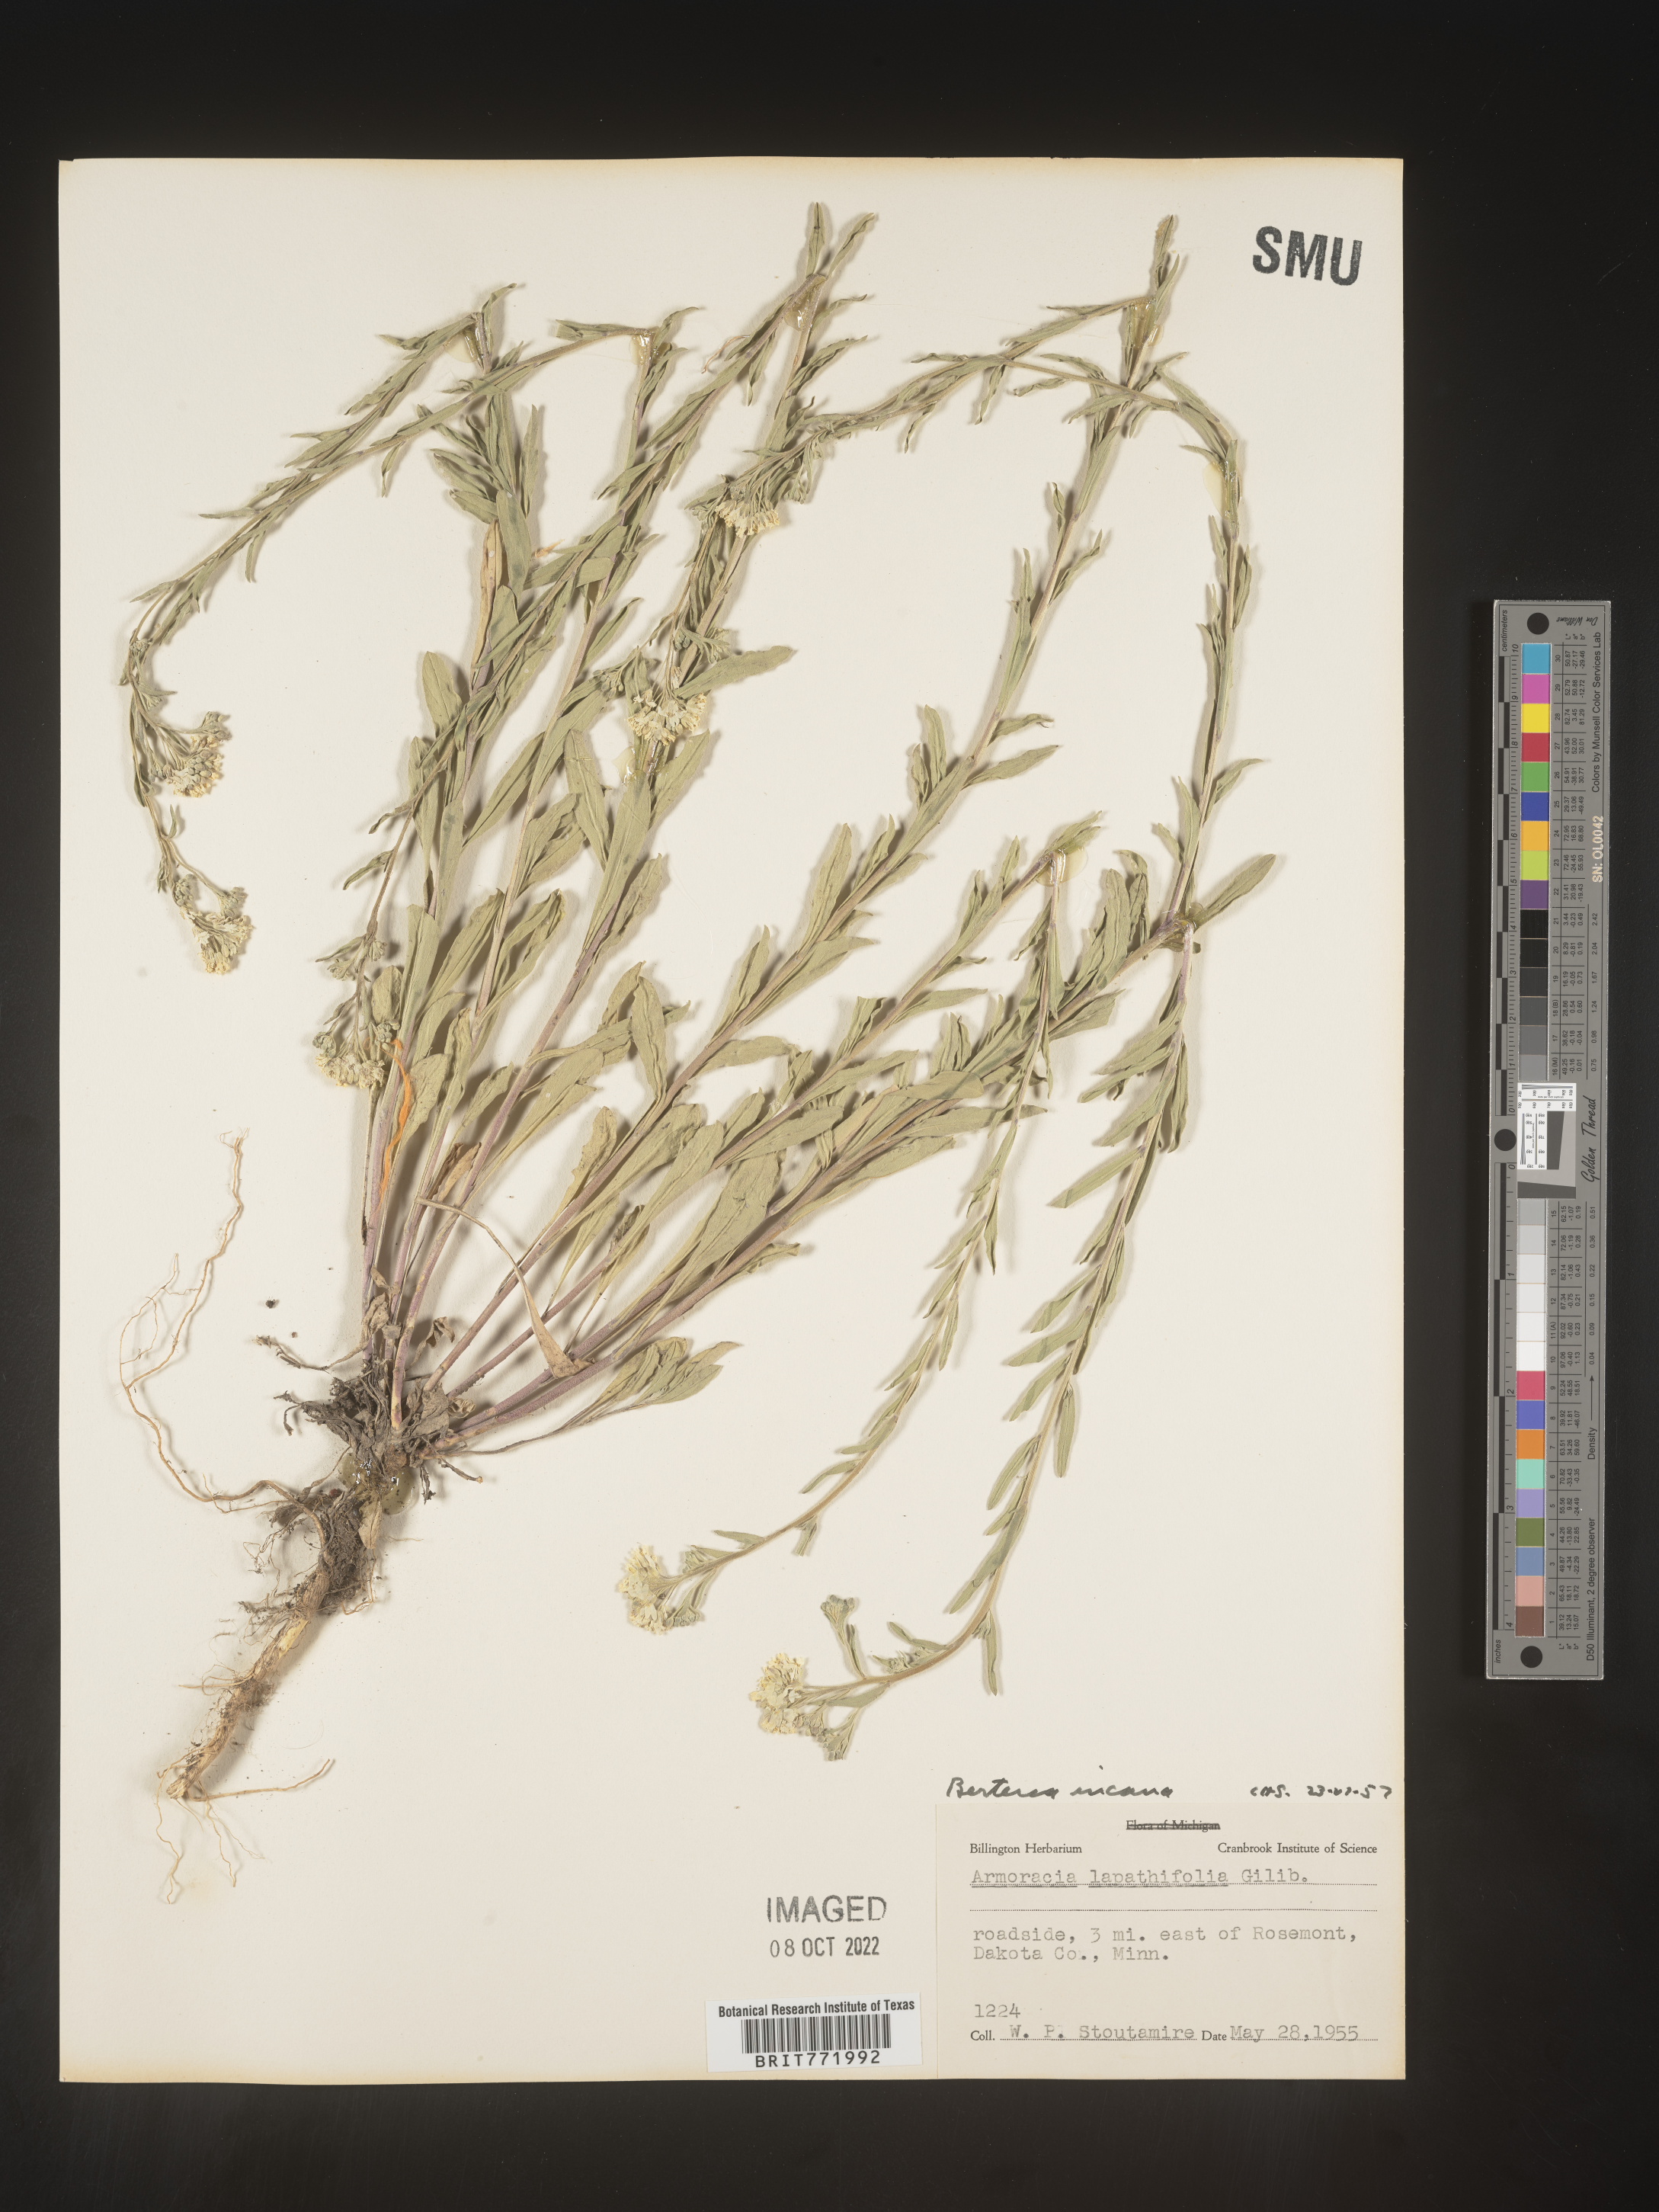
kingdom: Plantae
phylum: Tracheophyta
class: Magnoliopsida
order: Brassicales
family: Brassicaceae
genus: Berteroa
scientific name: Berteroa incana
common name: Hoary alison
